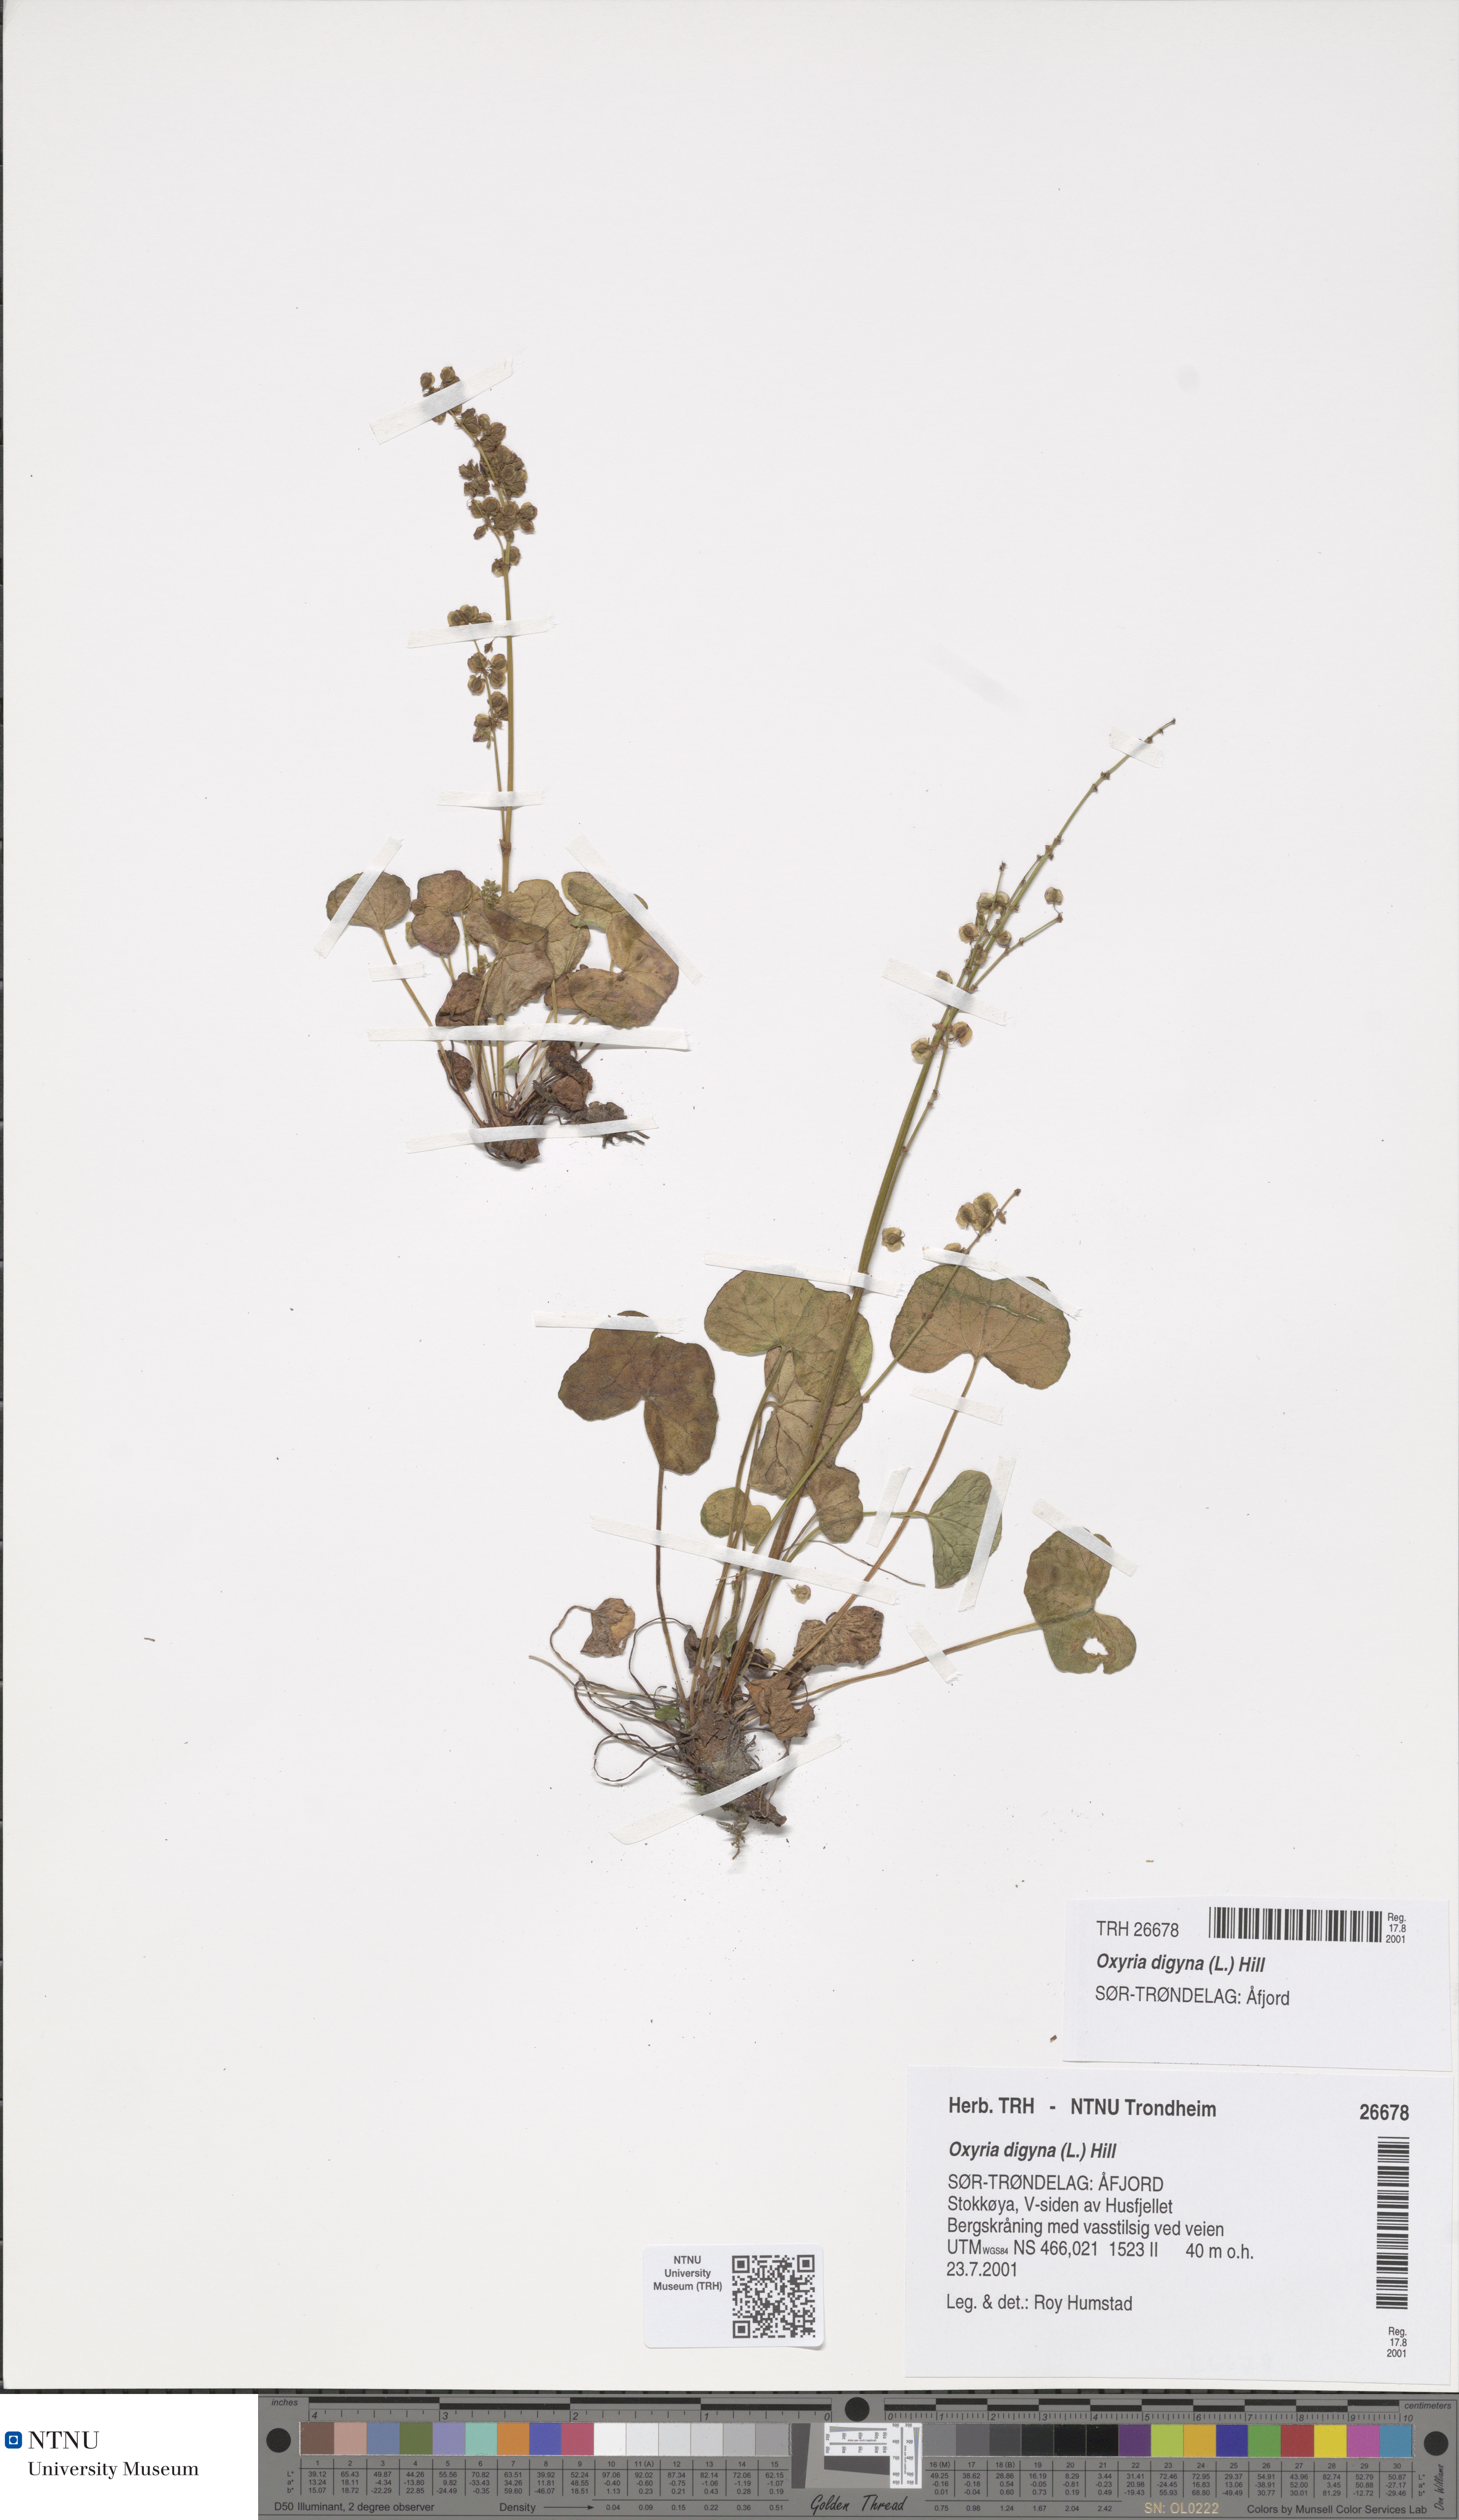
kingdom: Plantae
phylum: Tracheophyta
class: Magnoliopsida
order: Caryophyllales
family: Polygonaceae
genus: Oxyria
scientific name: Oxyria digyna
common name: Alpine mountain-sorrel
